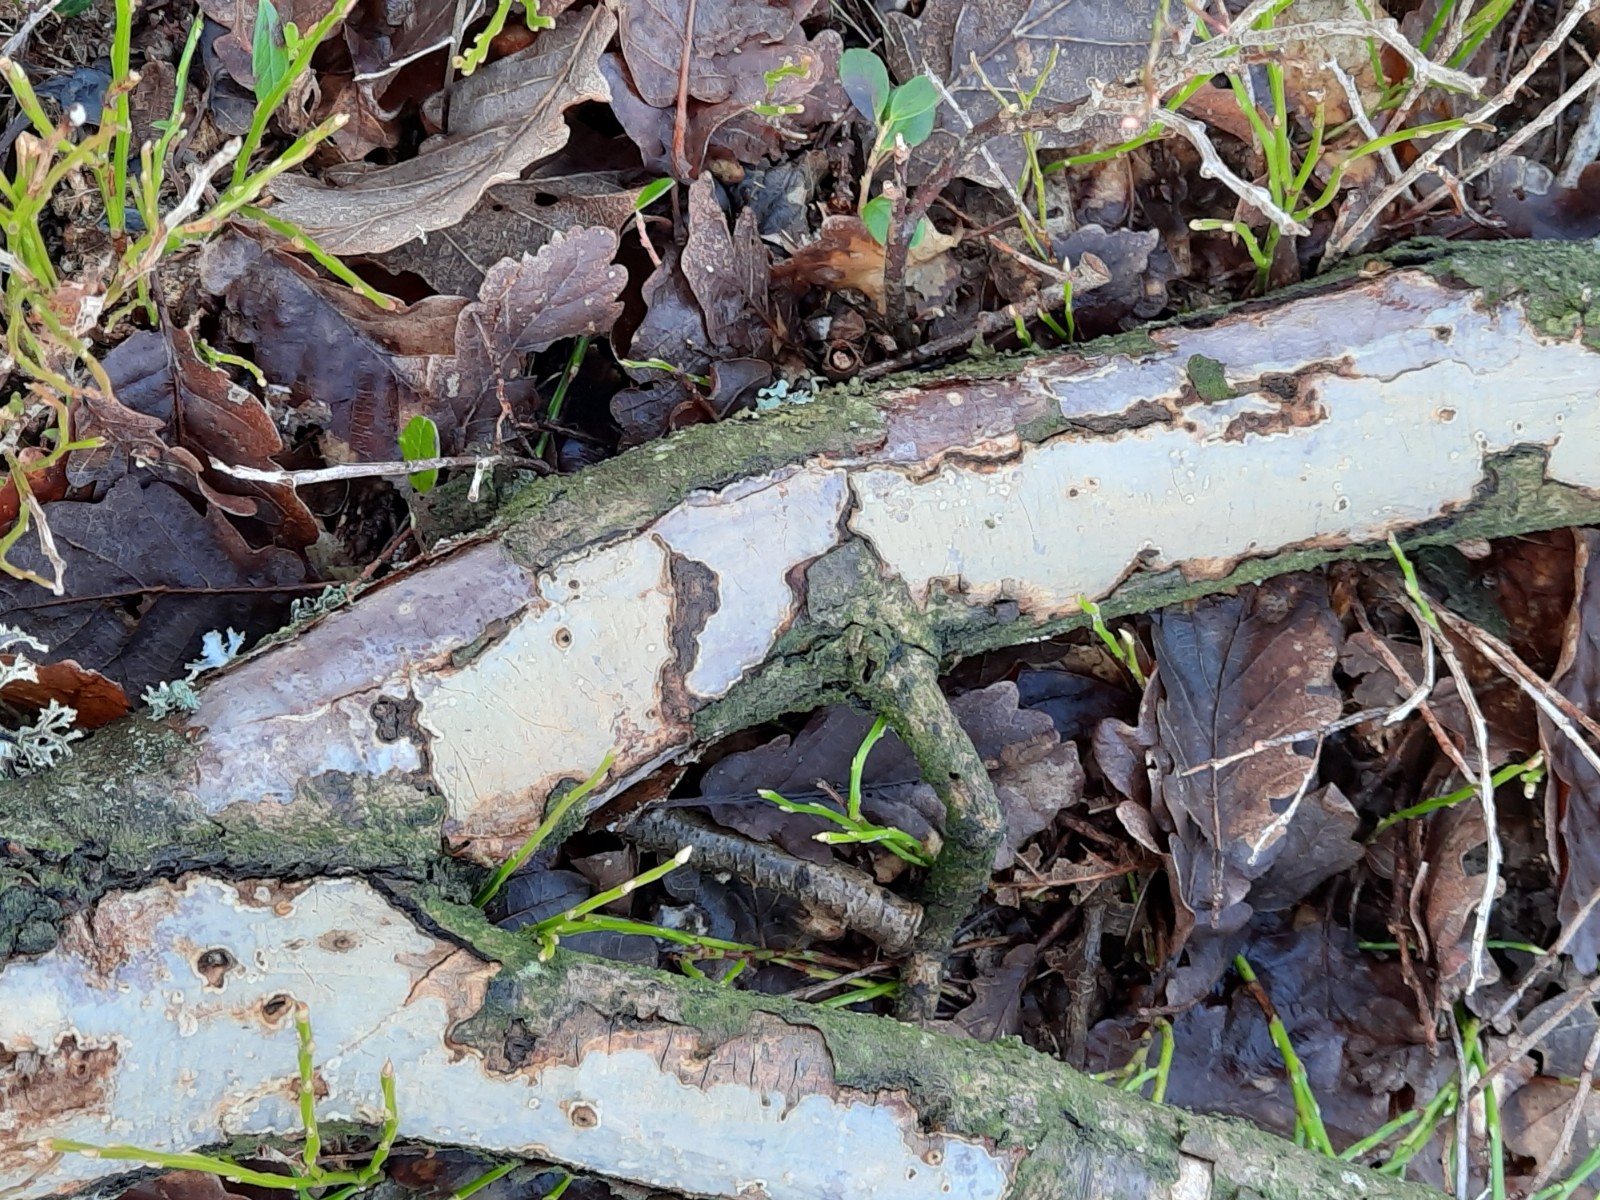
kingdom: Fungi
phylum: Basidiomycota
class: Agaricomycetes
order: Corticiales
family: Vuilleminiaceae
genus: Vuilleminia
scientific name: Vuilleminia comedens
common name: almindelig barksprænger
